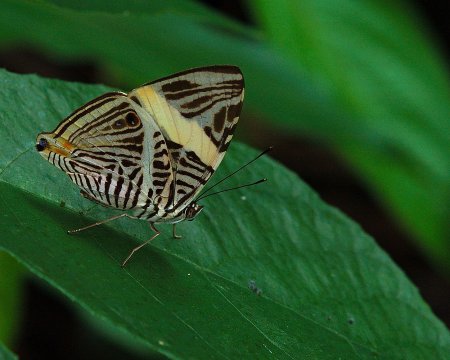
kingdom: Animalia
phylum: Arthropoda
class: Insecta
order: Lepidoptera
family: Nymphalidae
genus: Colobura
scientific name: Colobura annulata
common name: New Beauty
